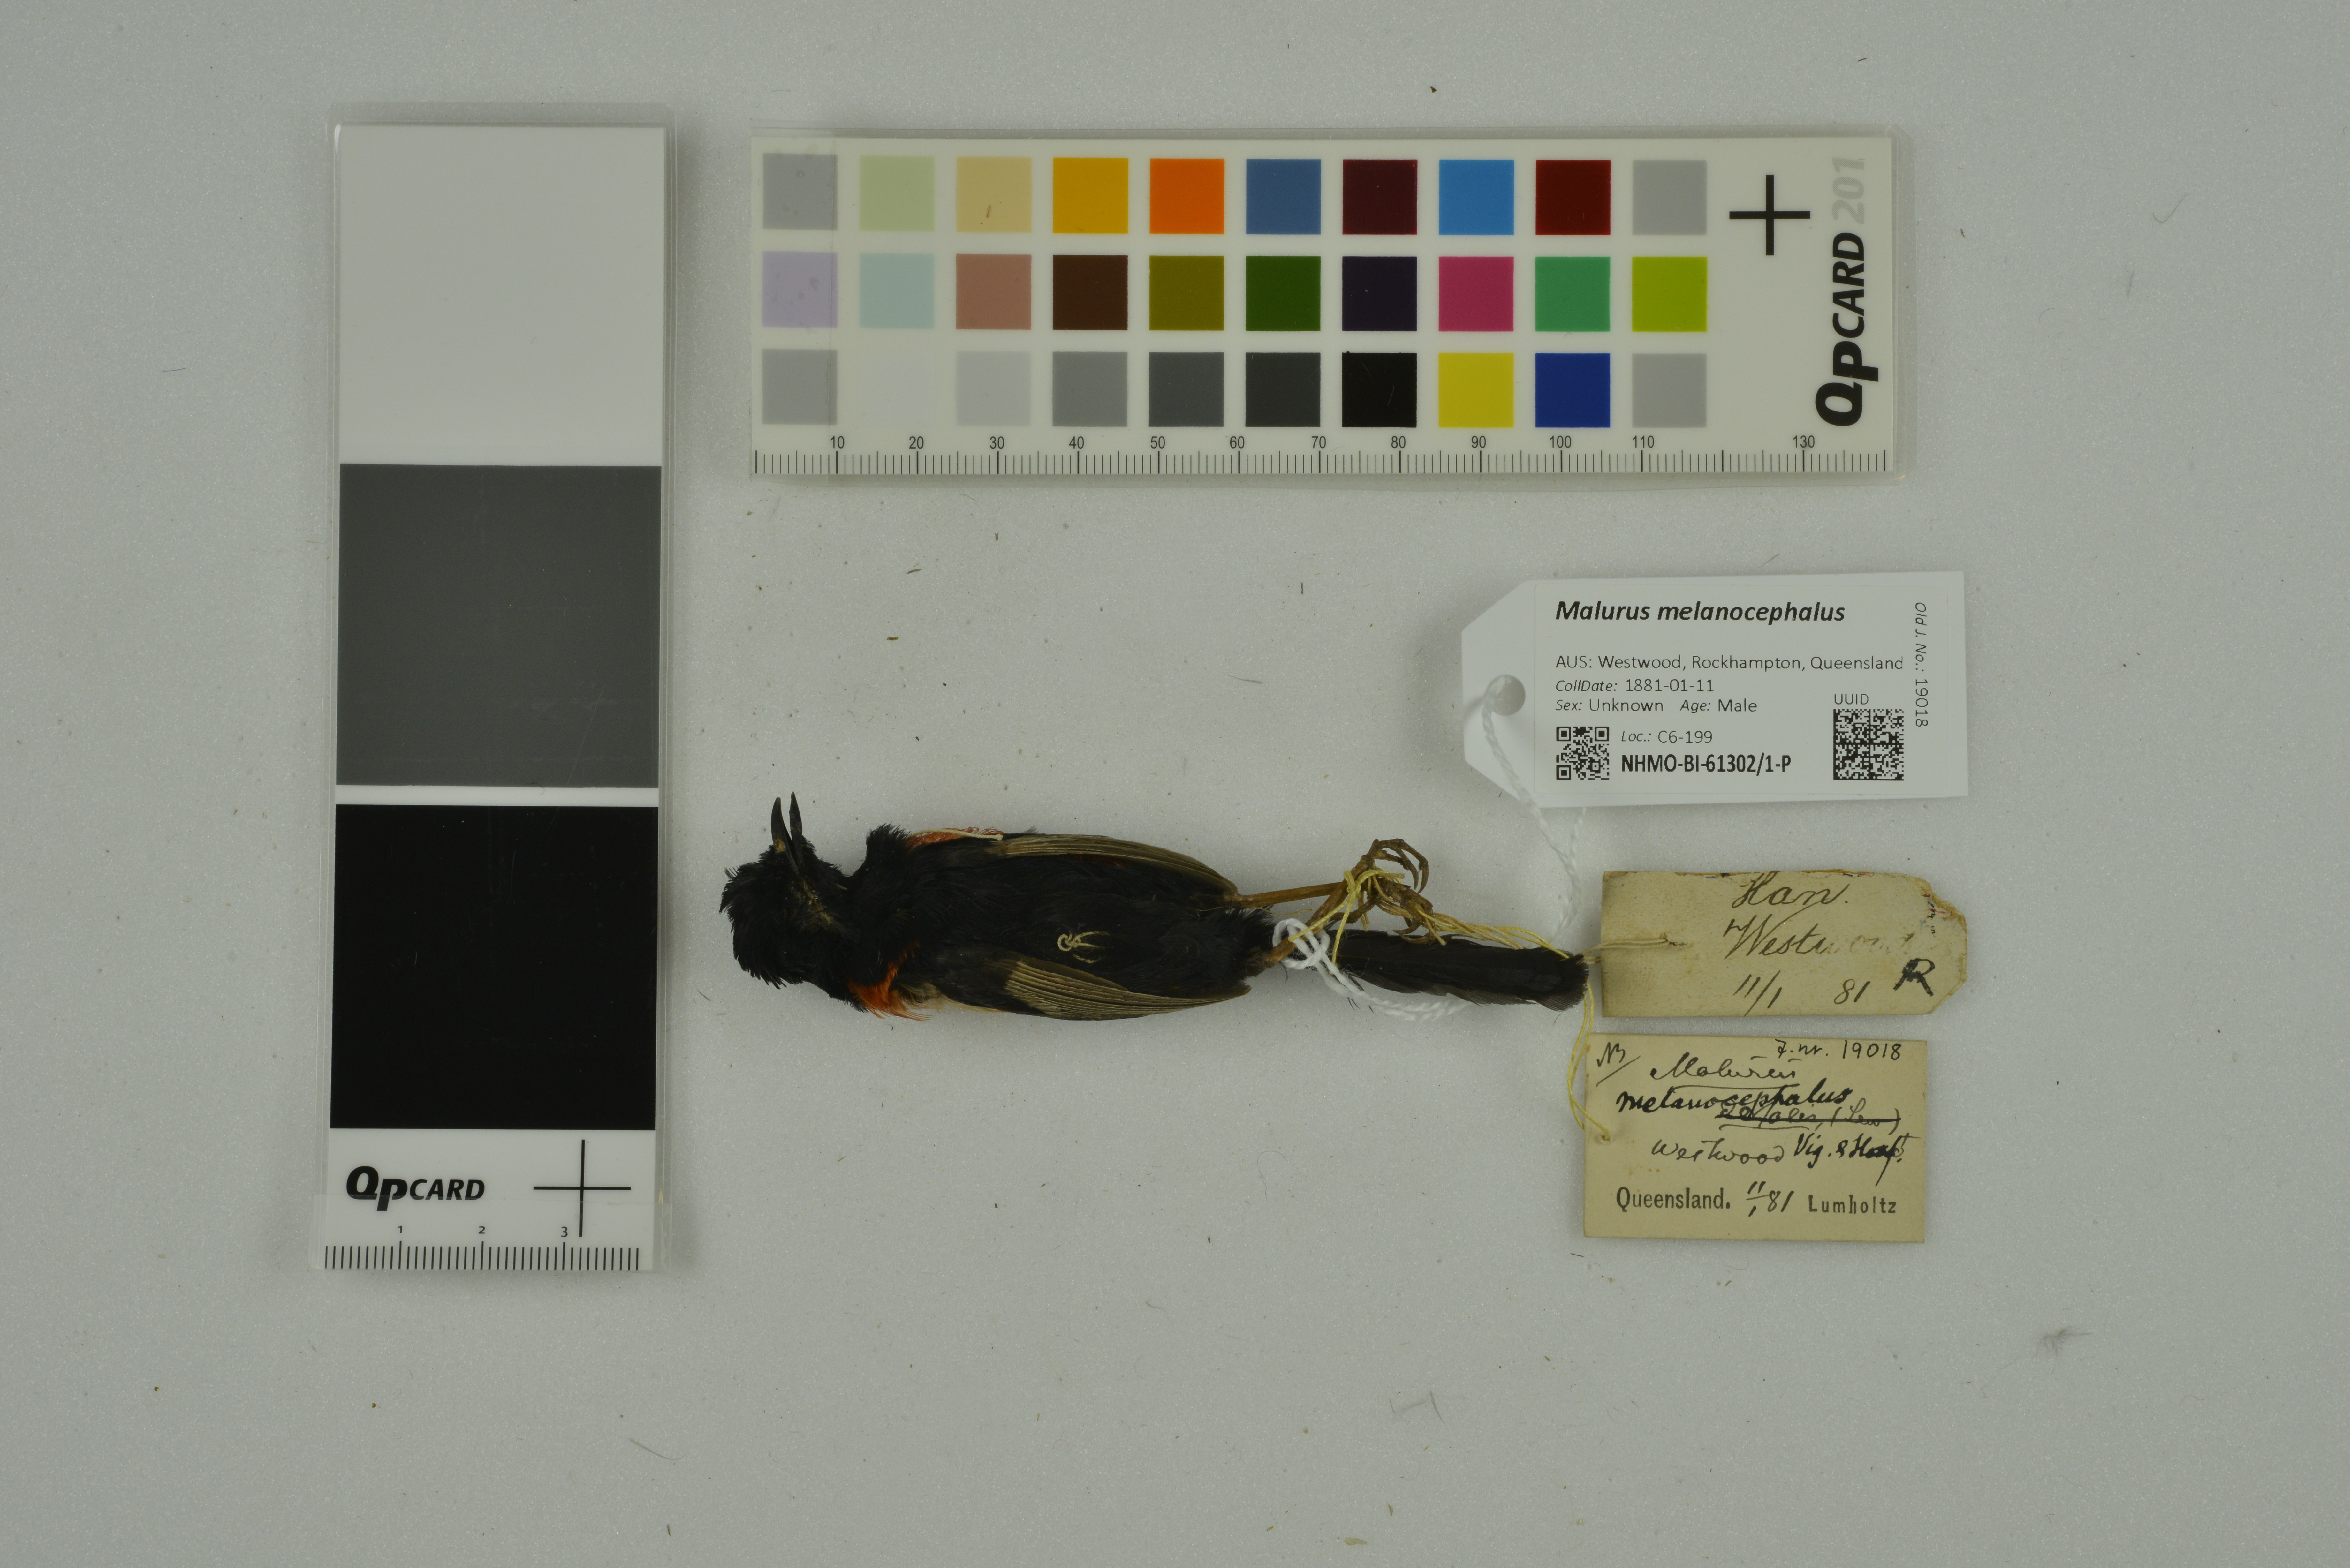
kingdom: Animalia
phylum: Chordata
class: Aves
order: Passeriformes
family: Maluridae
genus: Malurus
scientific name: Malurus melanocephalus
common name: Red-backed fairywren
